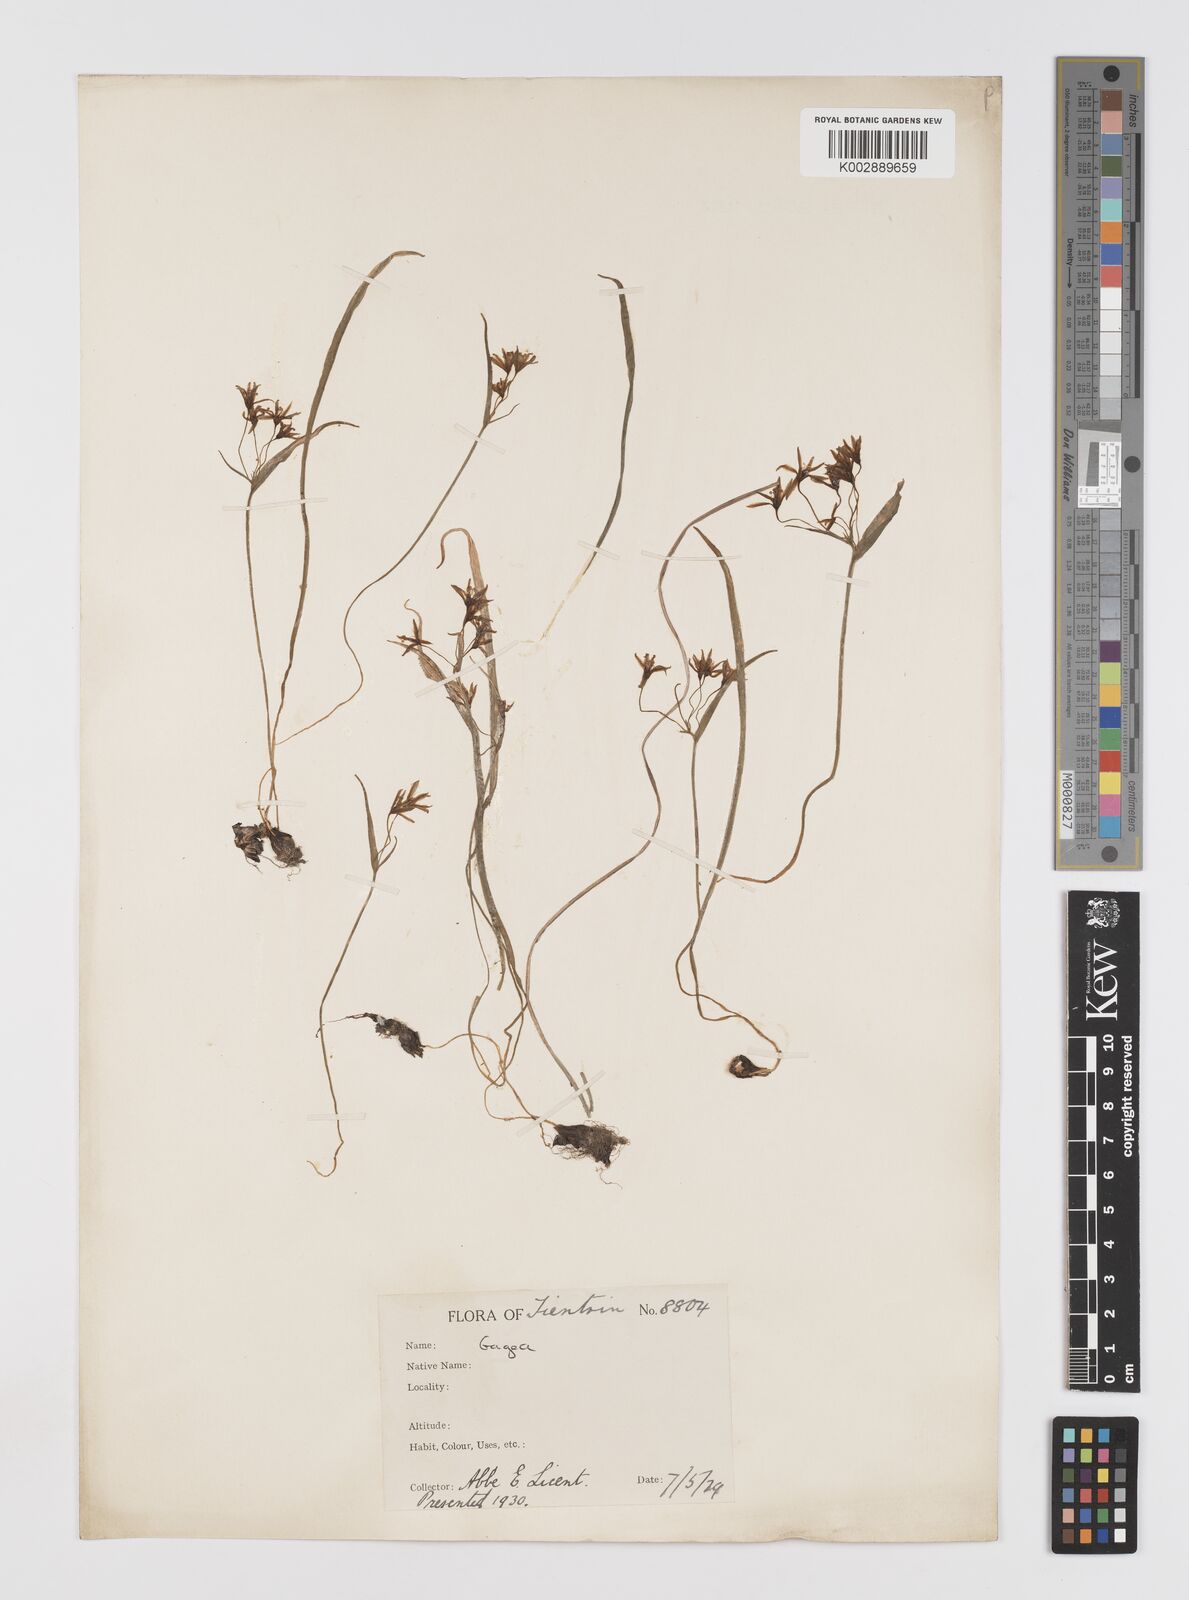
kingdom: Plantae
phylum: Tracheophyta
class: Liliopsida
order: Liliales
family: Liliaceae
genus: Gagea
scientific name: Gagea lutea
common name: Yellow star-of-bethlehem
